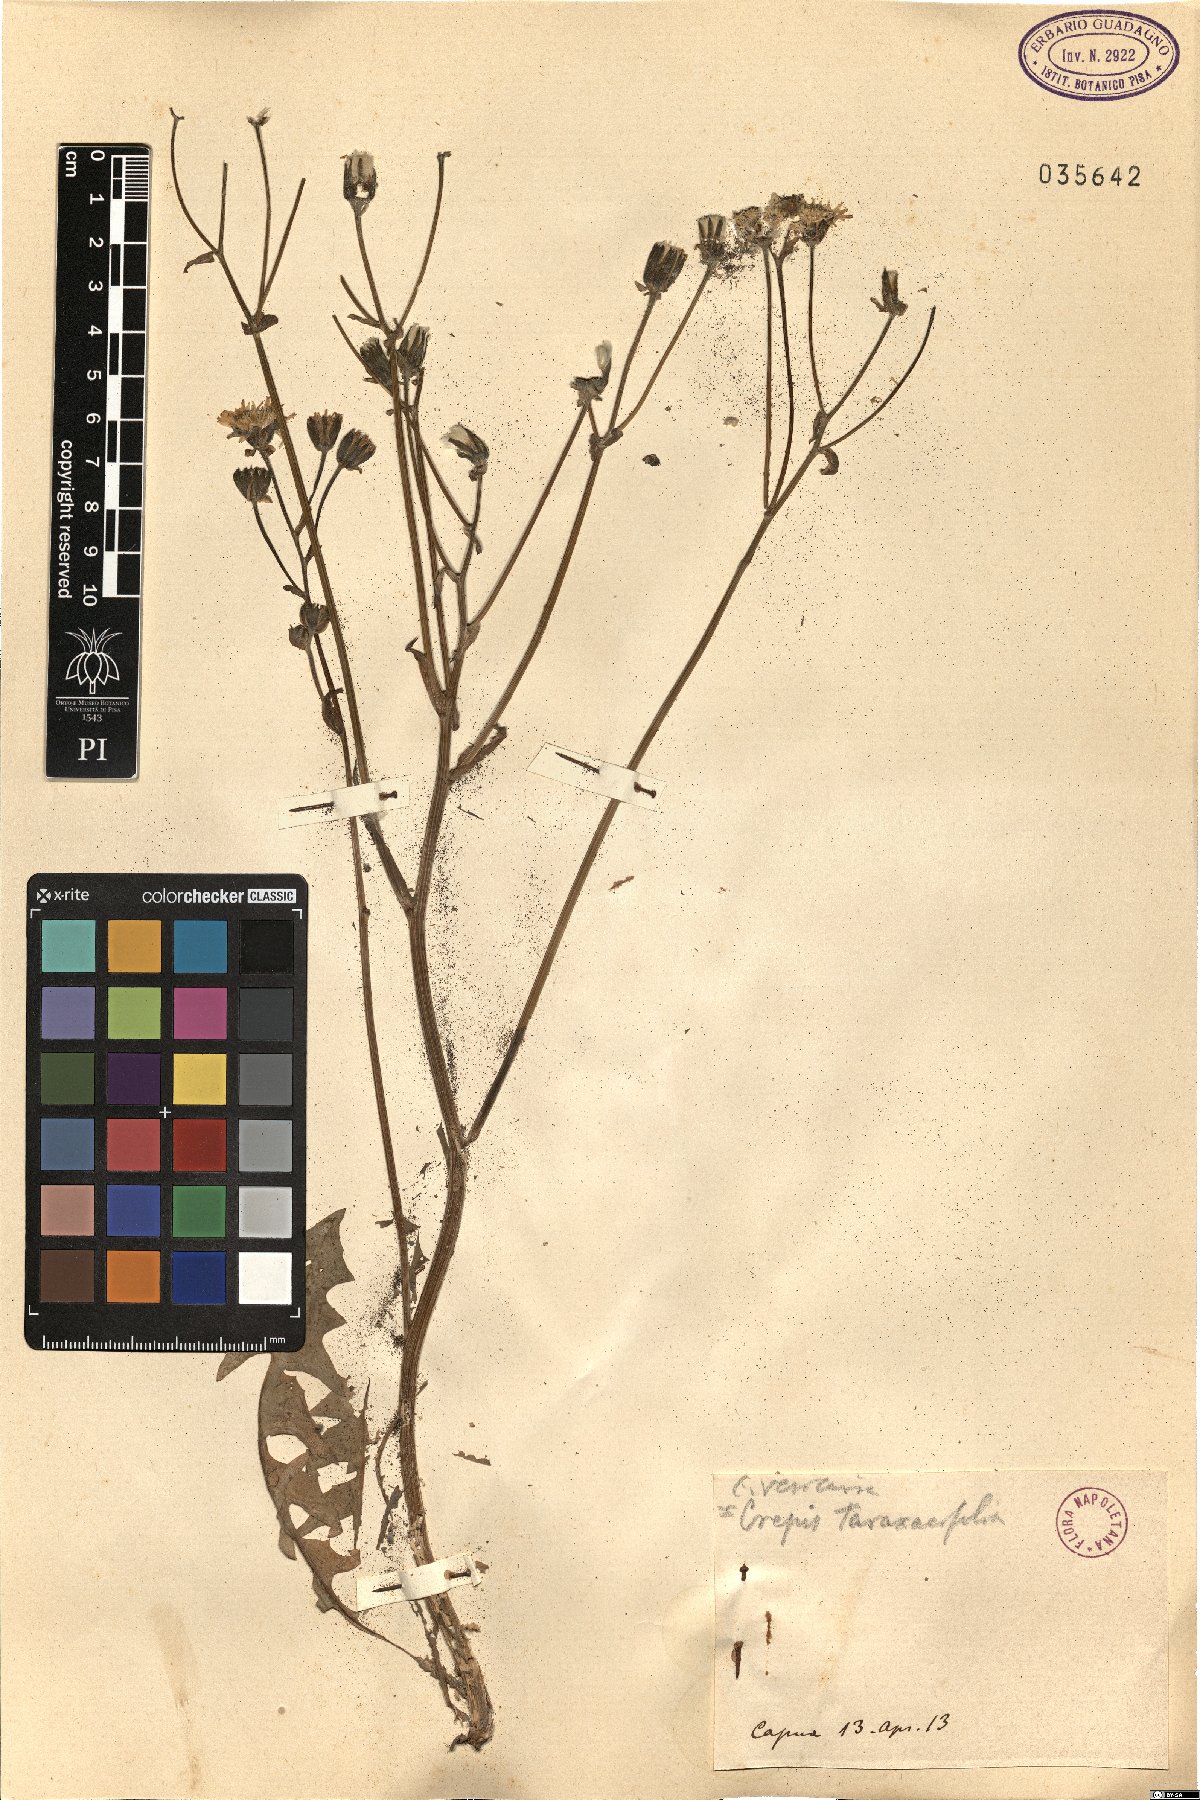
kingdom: Plantae
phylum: Tracheophyta
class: Magnoliopsida
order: Asterales
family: Asteraceae
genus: Crepis
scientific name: Crepis vesicaria
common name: Beaked hawksbeard
